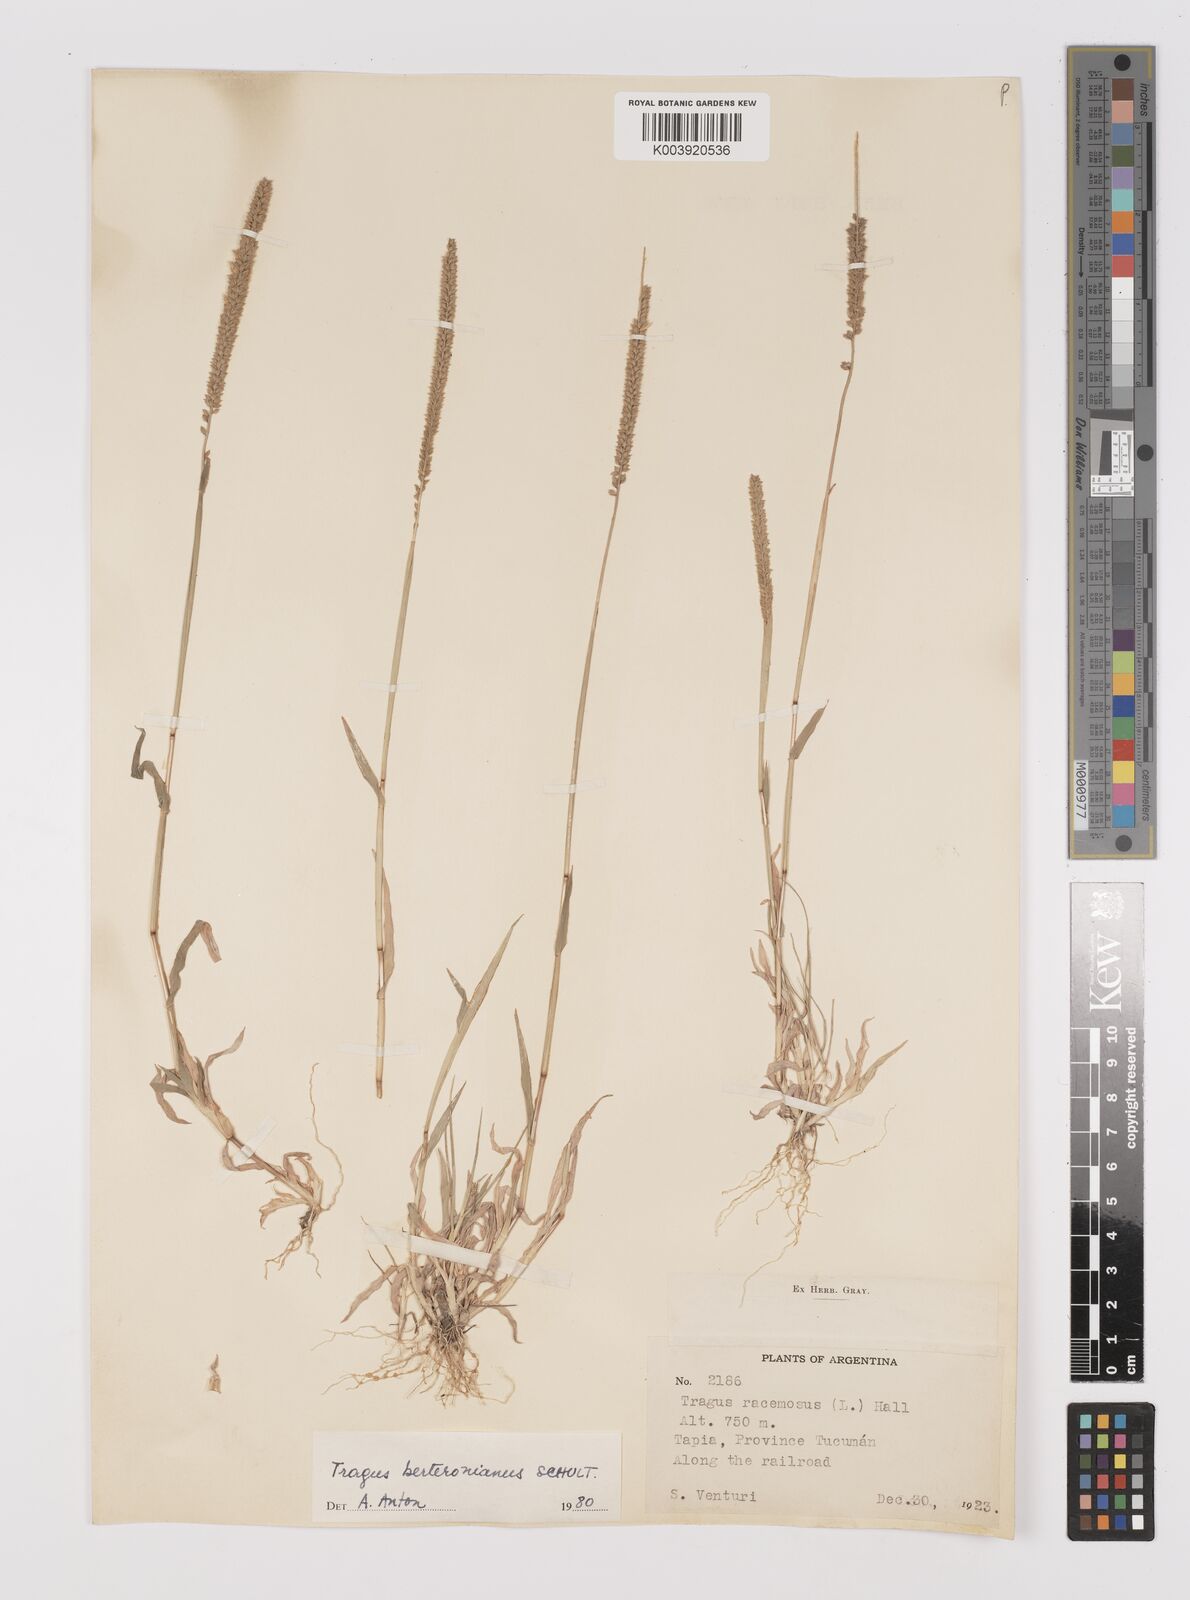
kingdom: Plantae
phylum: Tracheophyta
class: Liliopsida
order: Poales
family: Poaceae
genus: Tragus
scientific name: Tragus berteronianus
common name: African bur-grass
